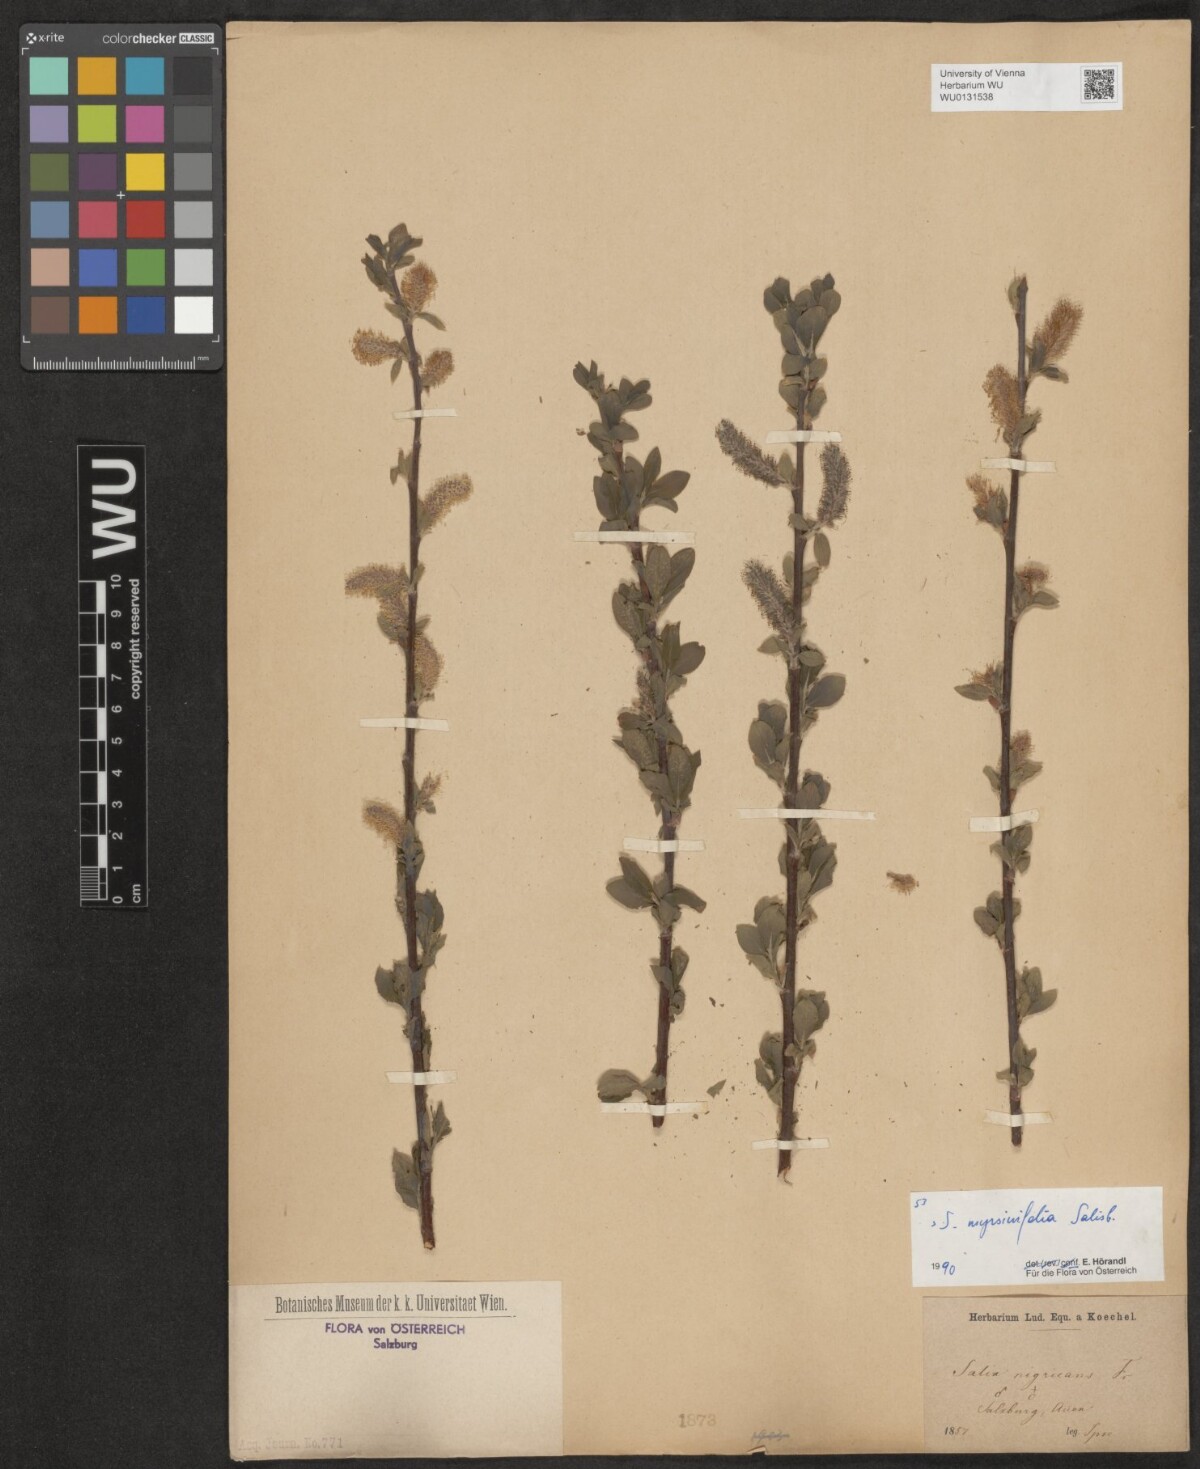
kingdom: Plantae
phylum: Tracheophyta
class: Magnoliopsida
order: Malpighiales
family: Salicaceae
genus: Salix
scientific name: Salix myrsinifolia
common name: Dark-leaved willow
